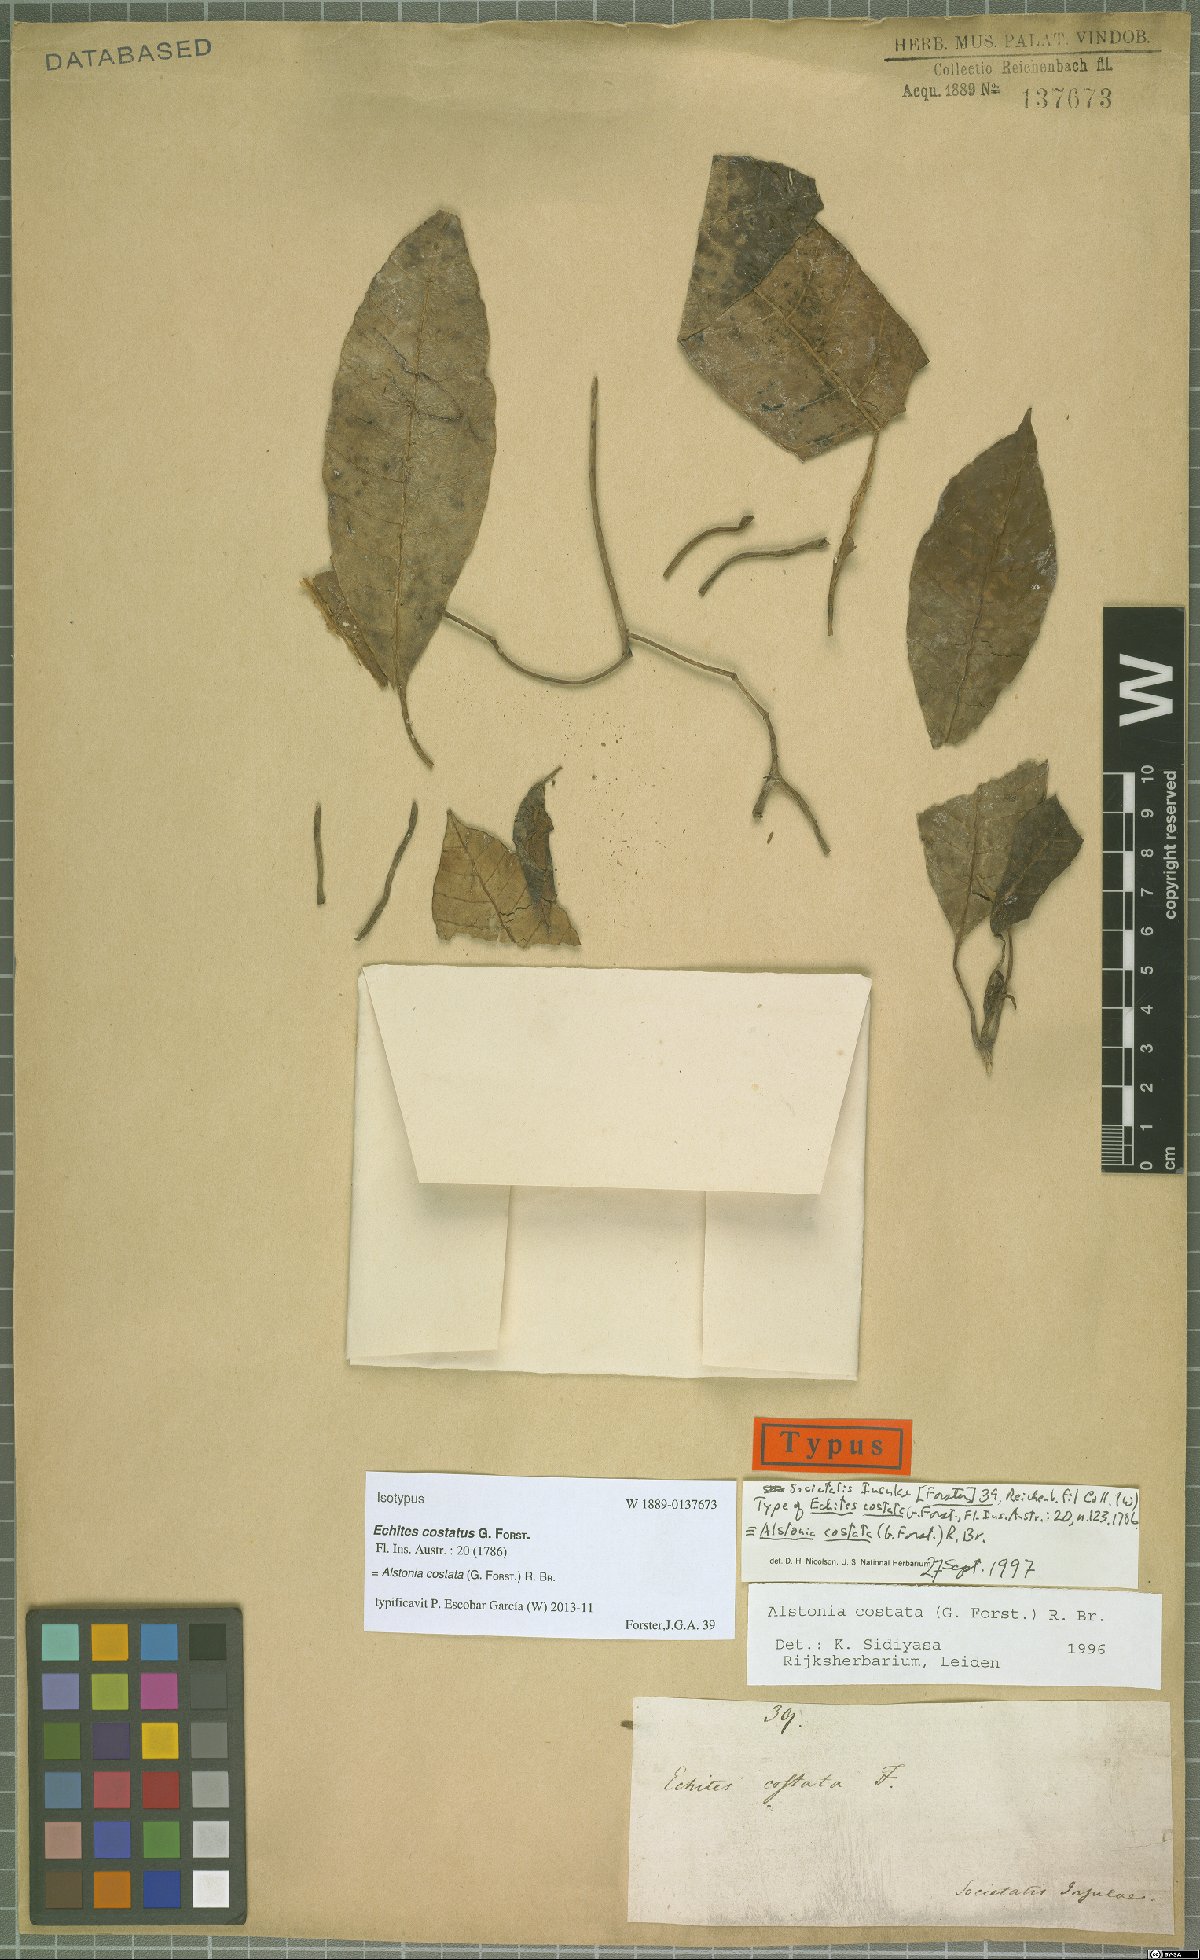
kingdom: Plantae
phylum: Tracheophyta
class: Magnoliopsida
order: Gentianales
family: Apocynaceae
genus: Alstonia
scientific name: Alstonia costata
